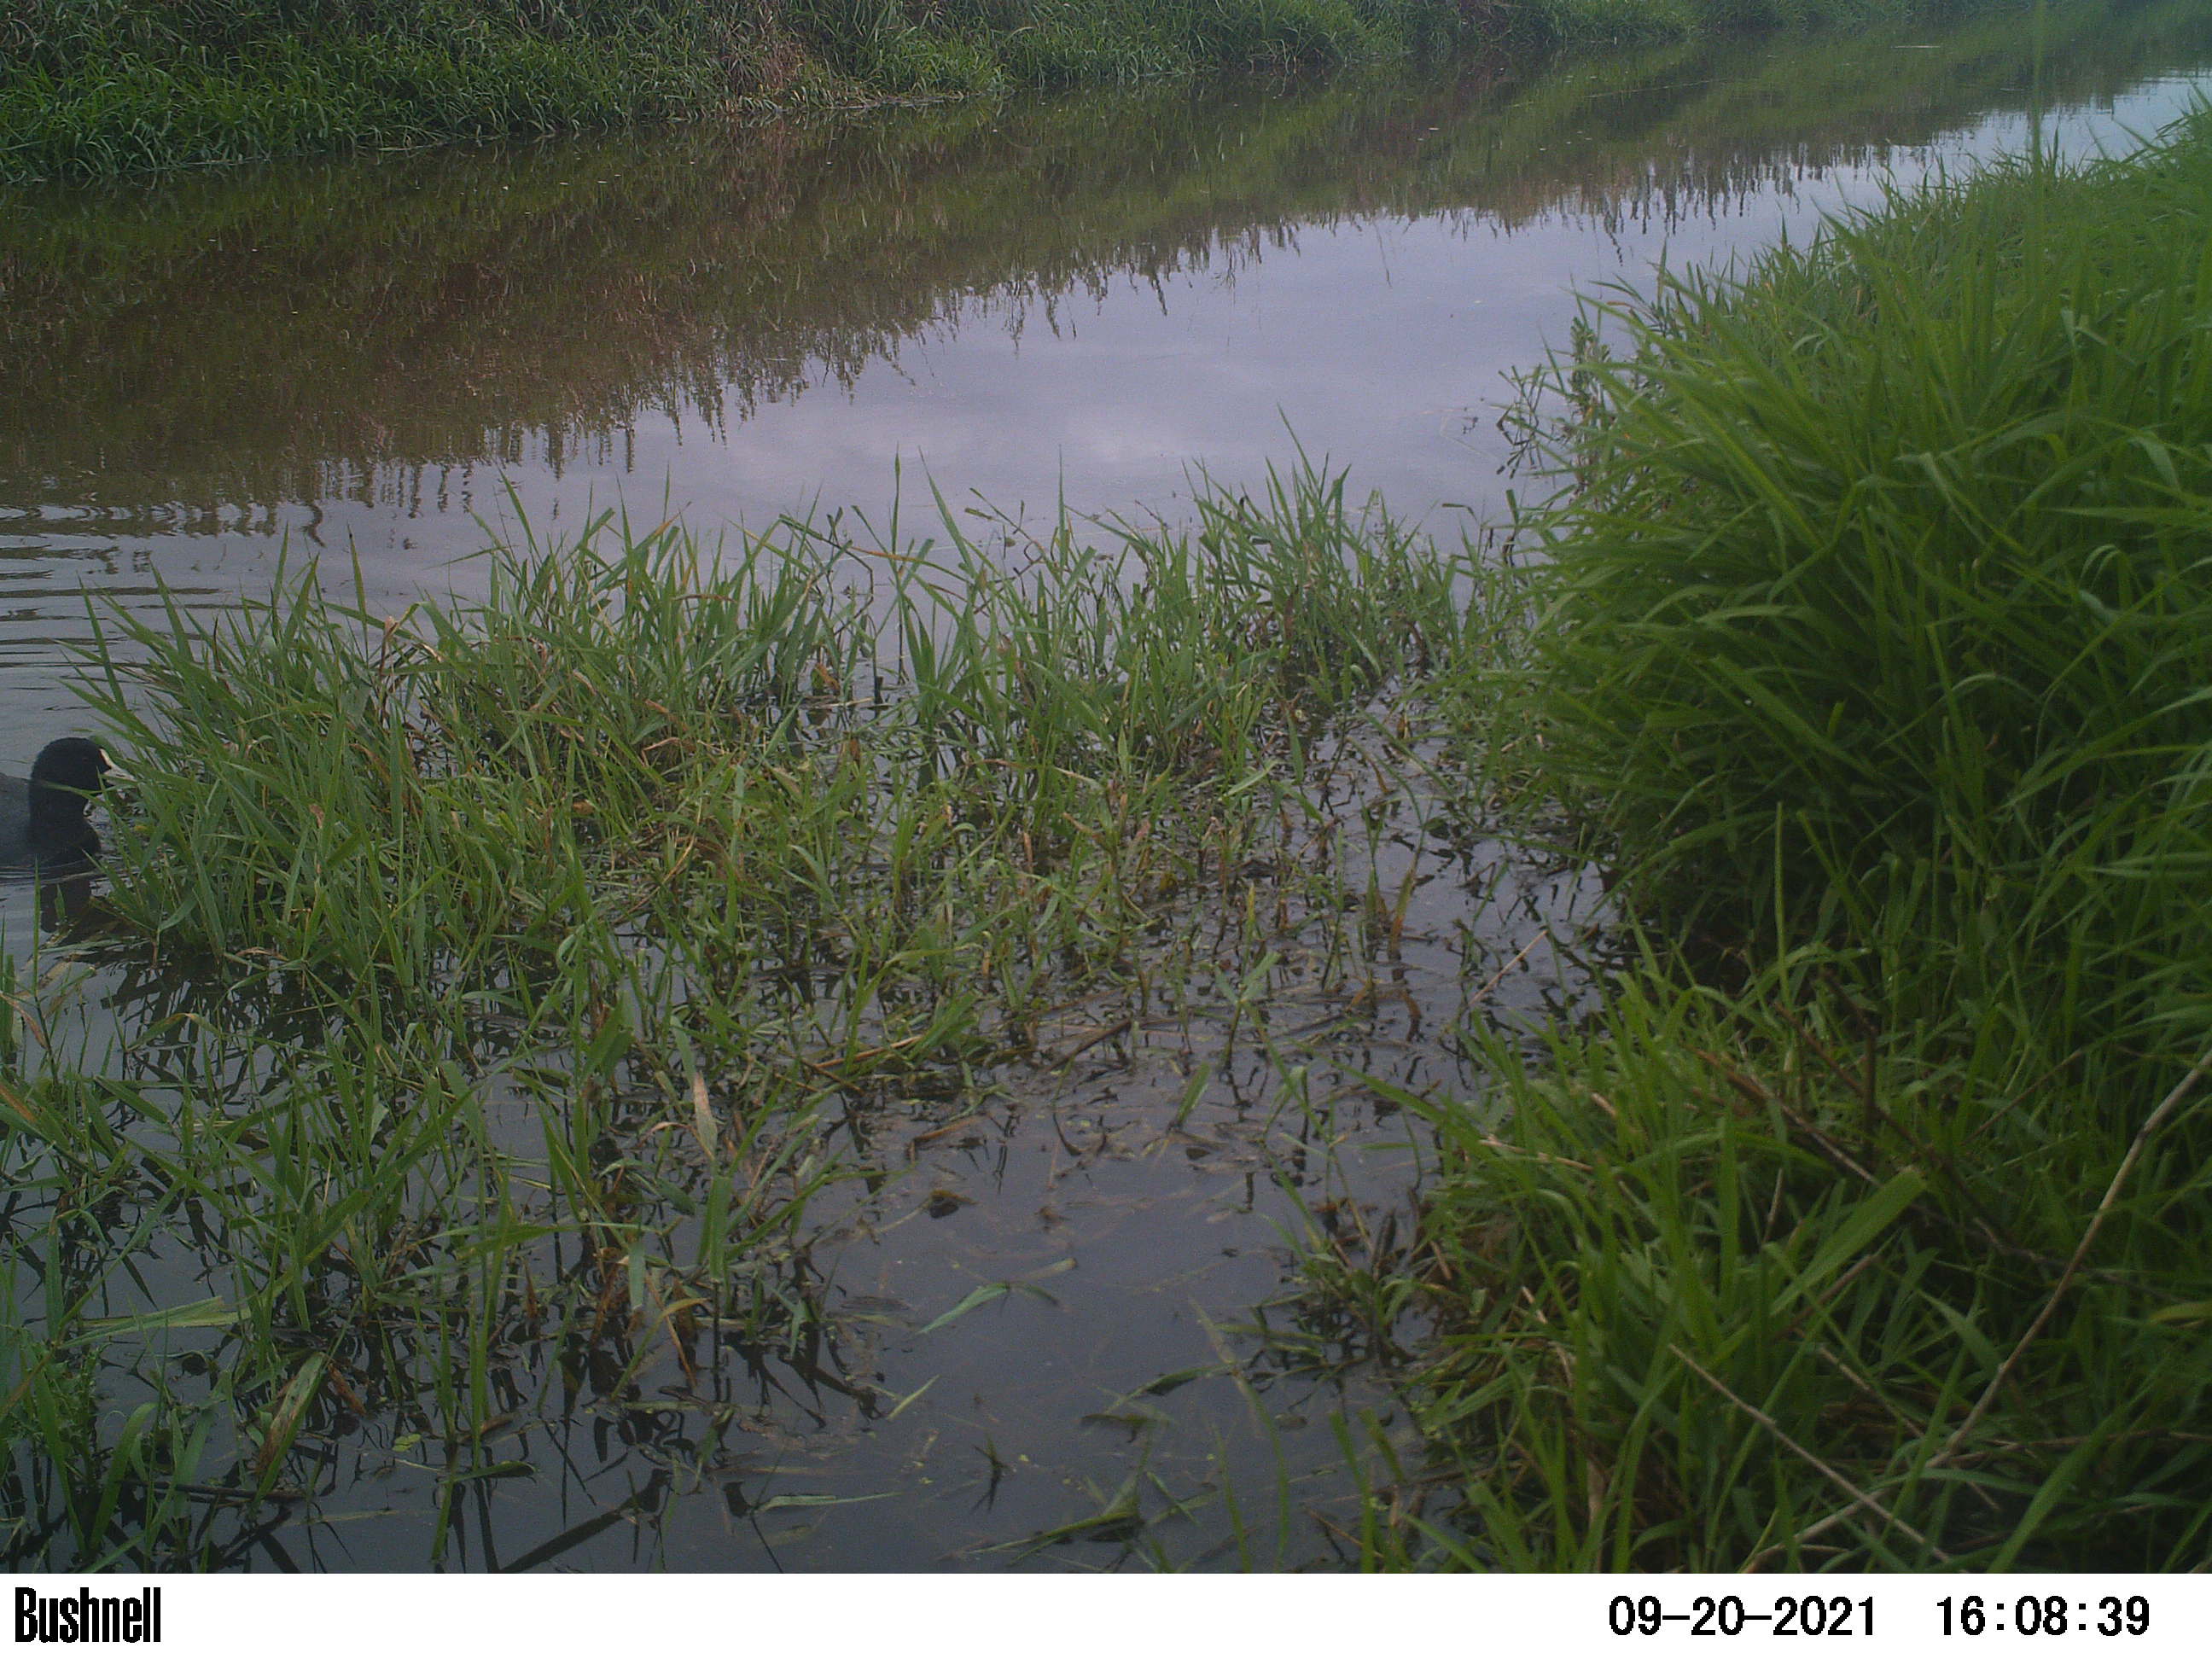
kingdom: Animalia
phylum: Chordata
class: Aves
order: Gruiformes
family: Rallidae
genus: Fulica
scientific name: Fulica atra
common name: Eurasian coot
